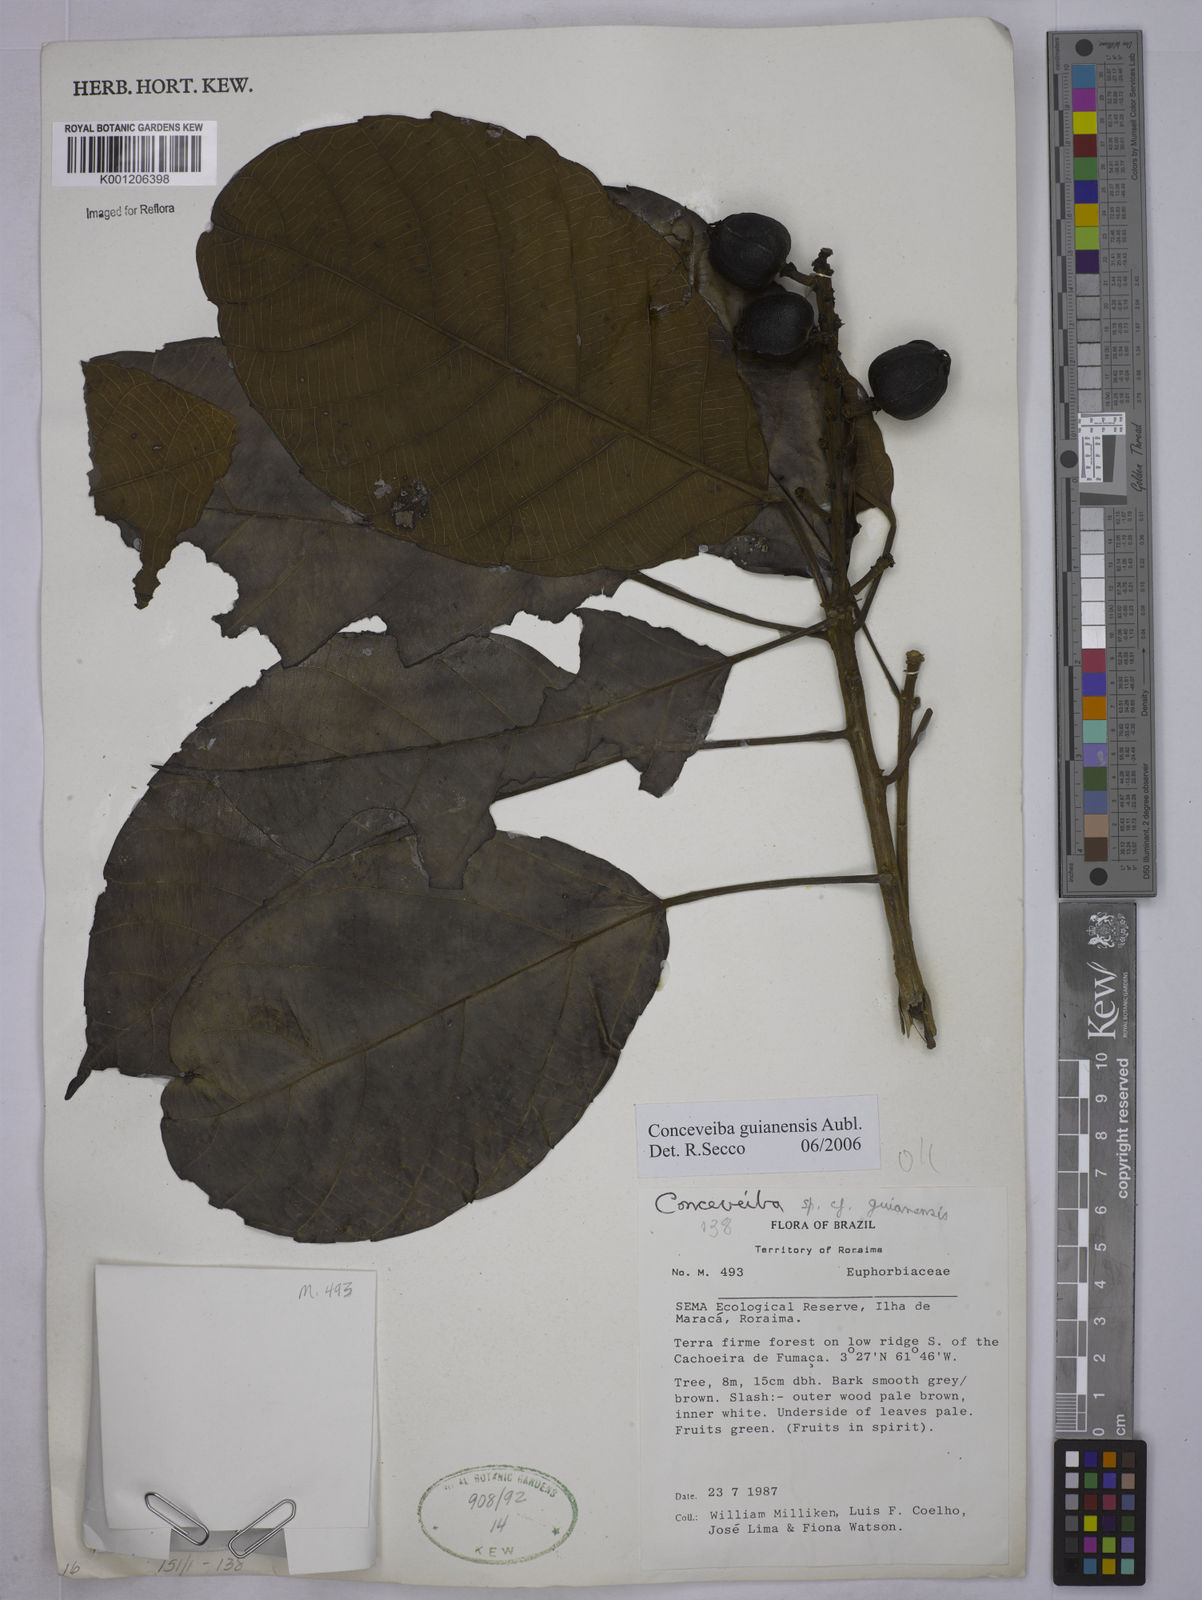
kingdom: Plantae
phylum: Tracheophyta
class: Magnoliopsida
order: Malpighiales
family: Euphorbiaceae
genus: Conceveiba
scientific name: Conceveiba guianensis
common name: Poatoru
